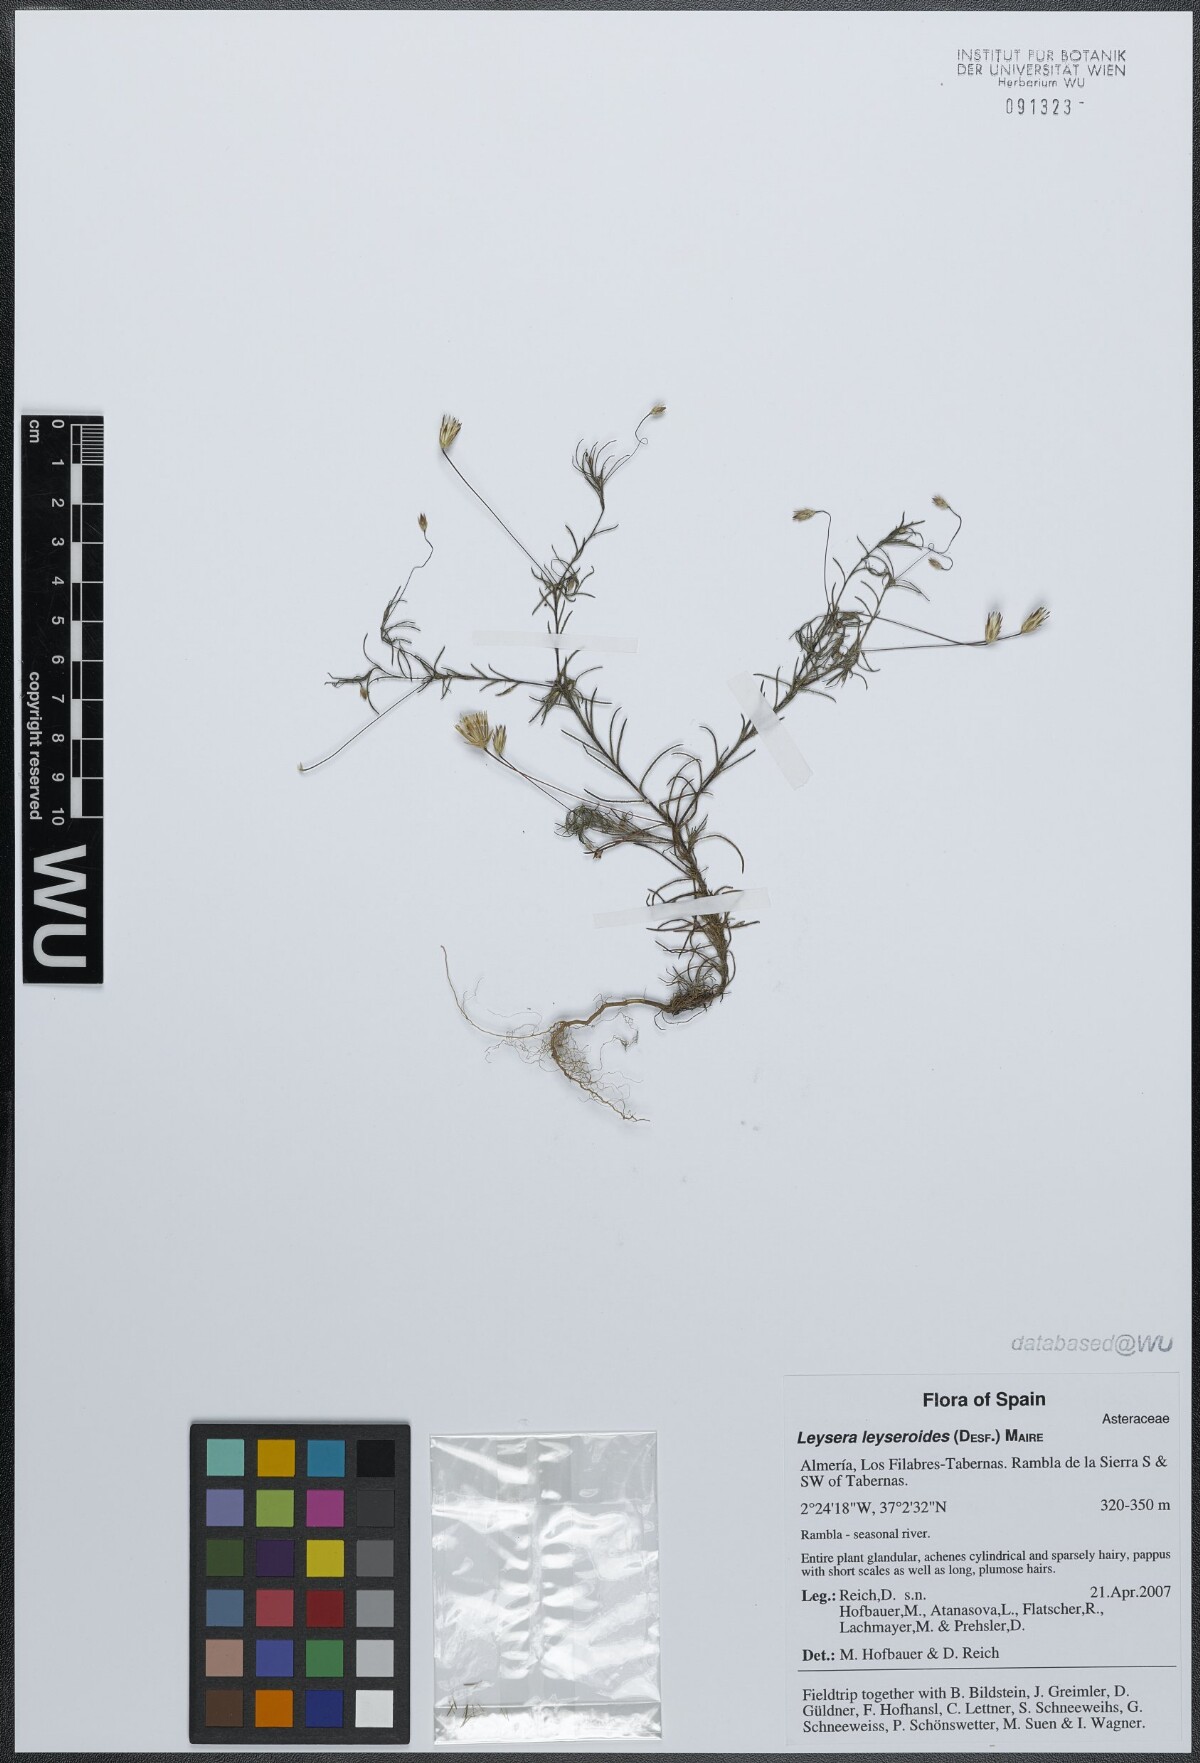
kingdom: Plantae
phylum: Tracheophyta
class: Magnoliopsida
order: Asterales
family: Asteraceae
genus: Leysera
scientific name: Leysera leyseroides
